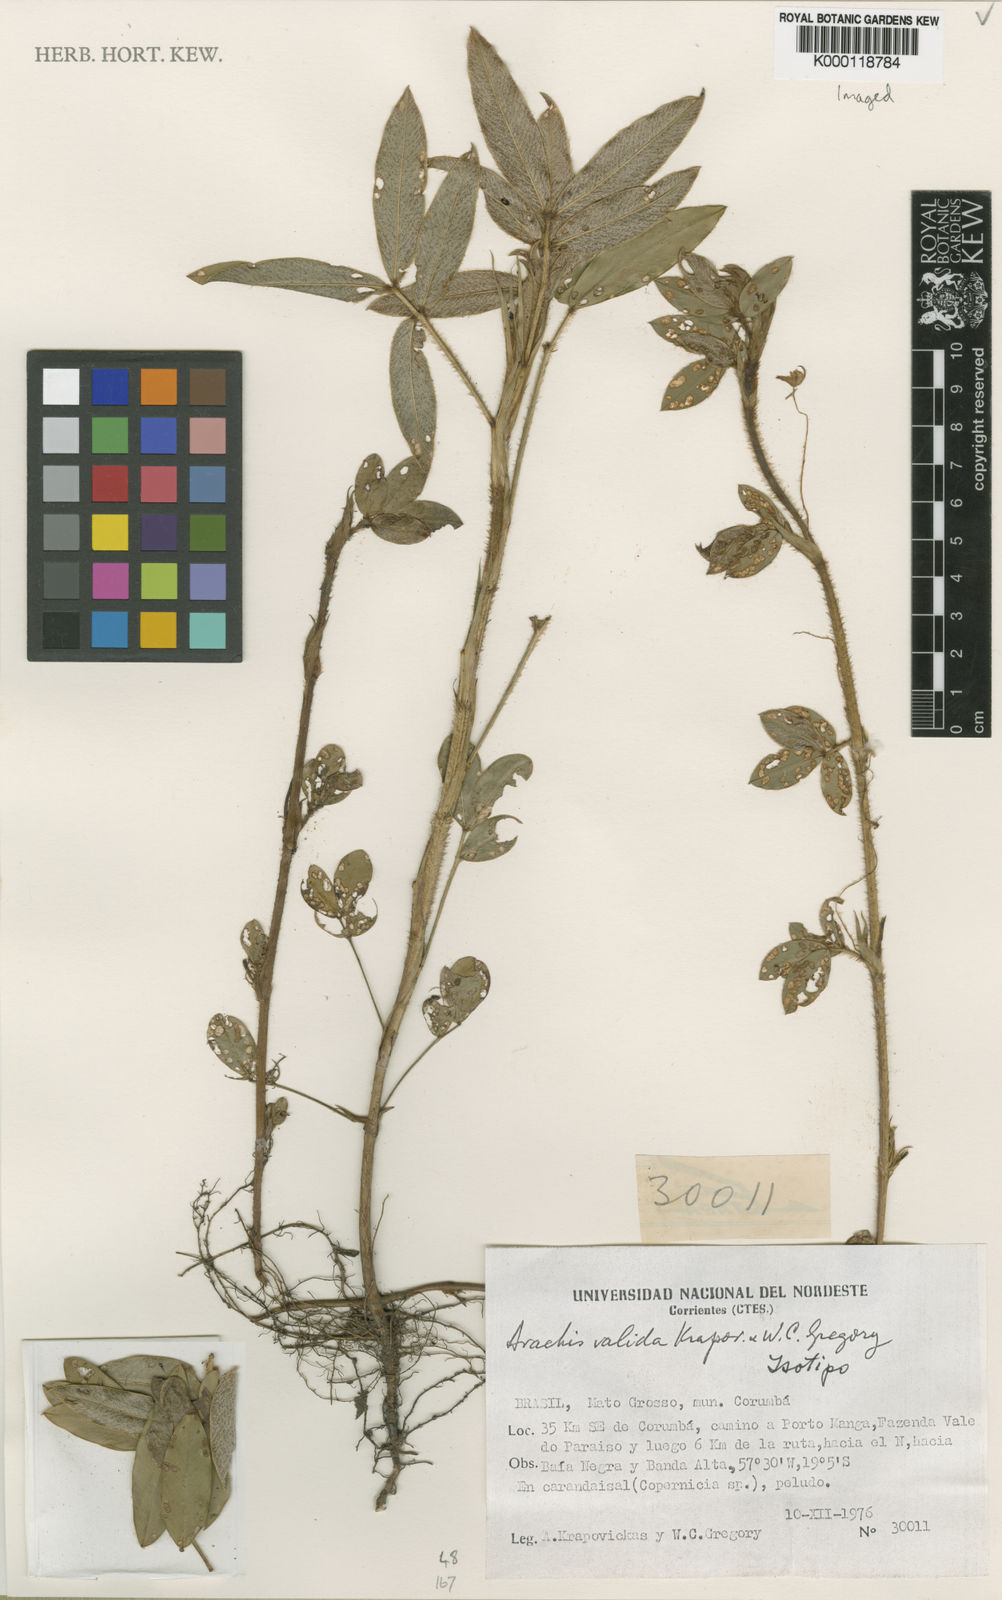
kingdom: Plantae
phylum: Tracheophyta
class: Magnoliopsida
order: Fabales
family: Fabaceae
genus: Arachis
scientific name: Arachis valida
